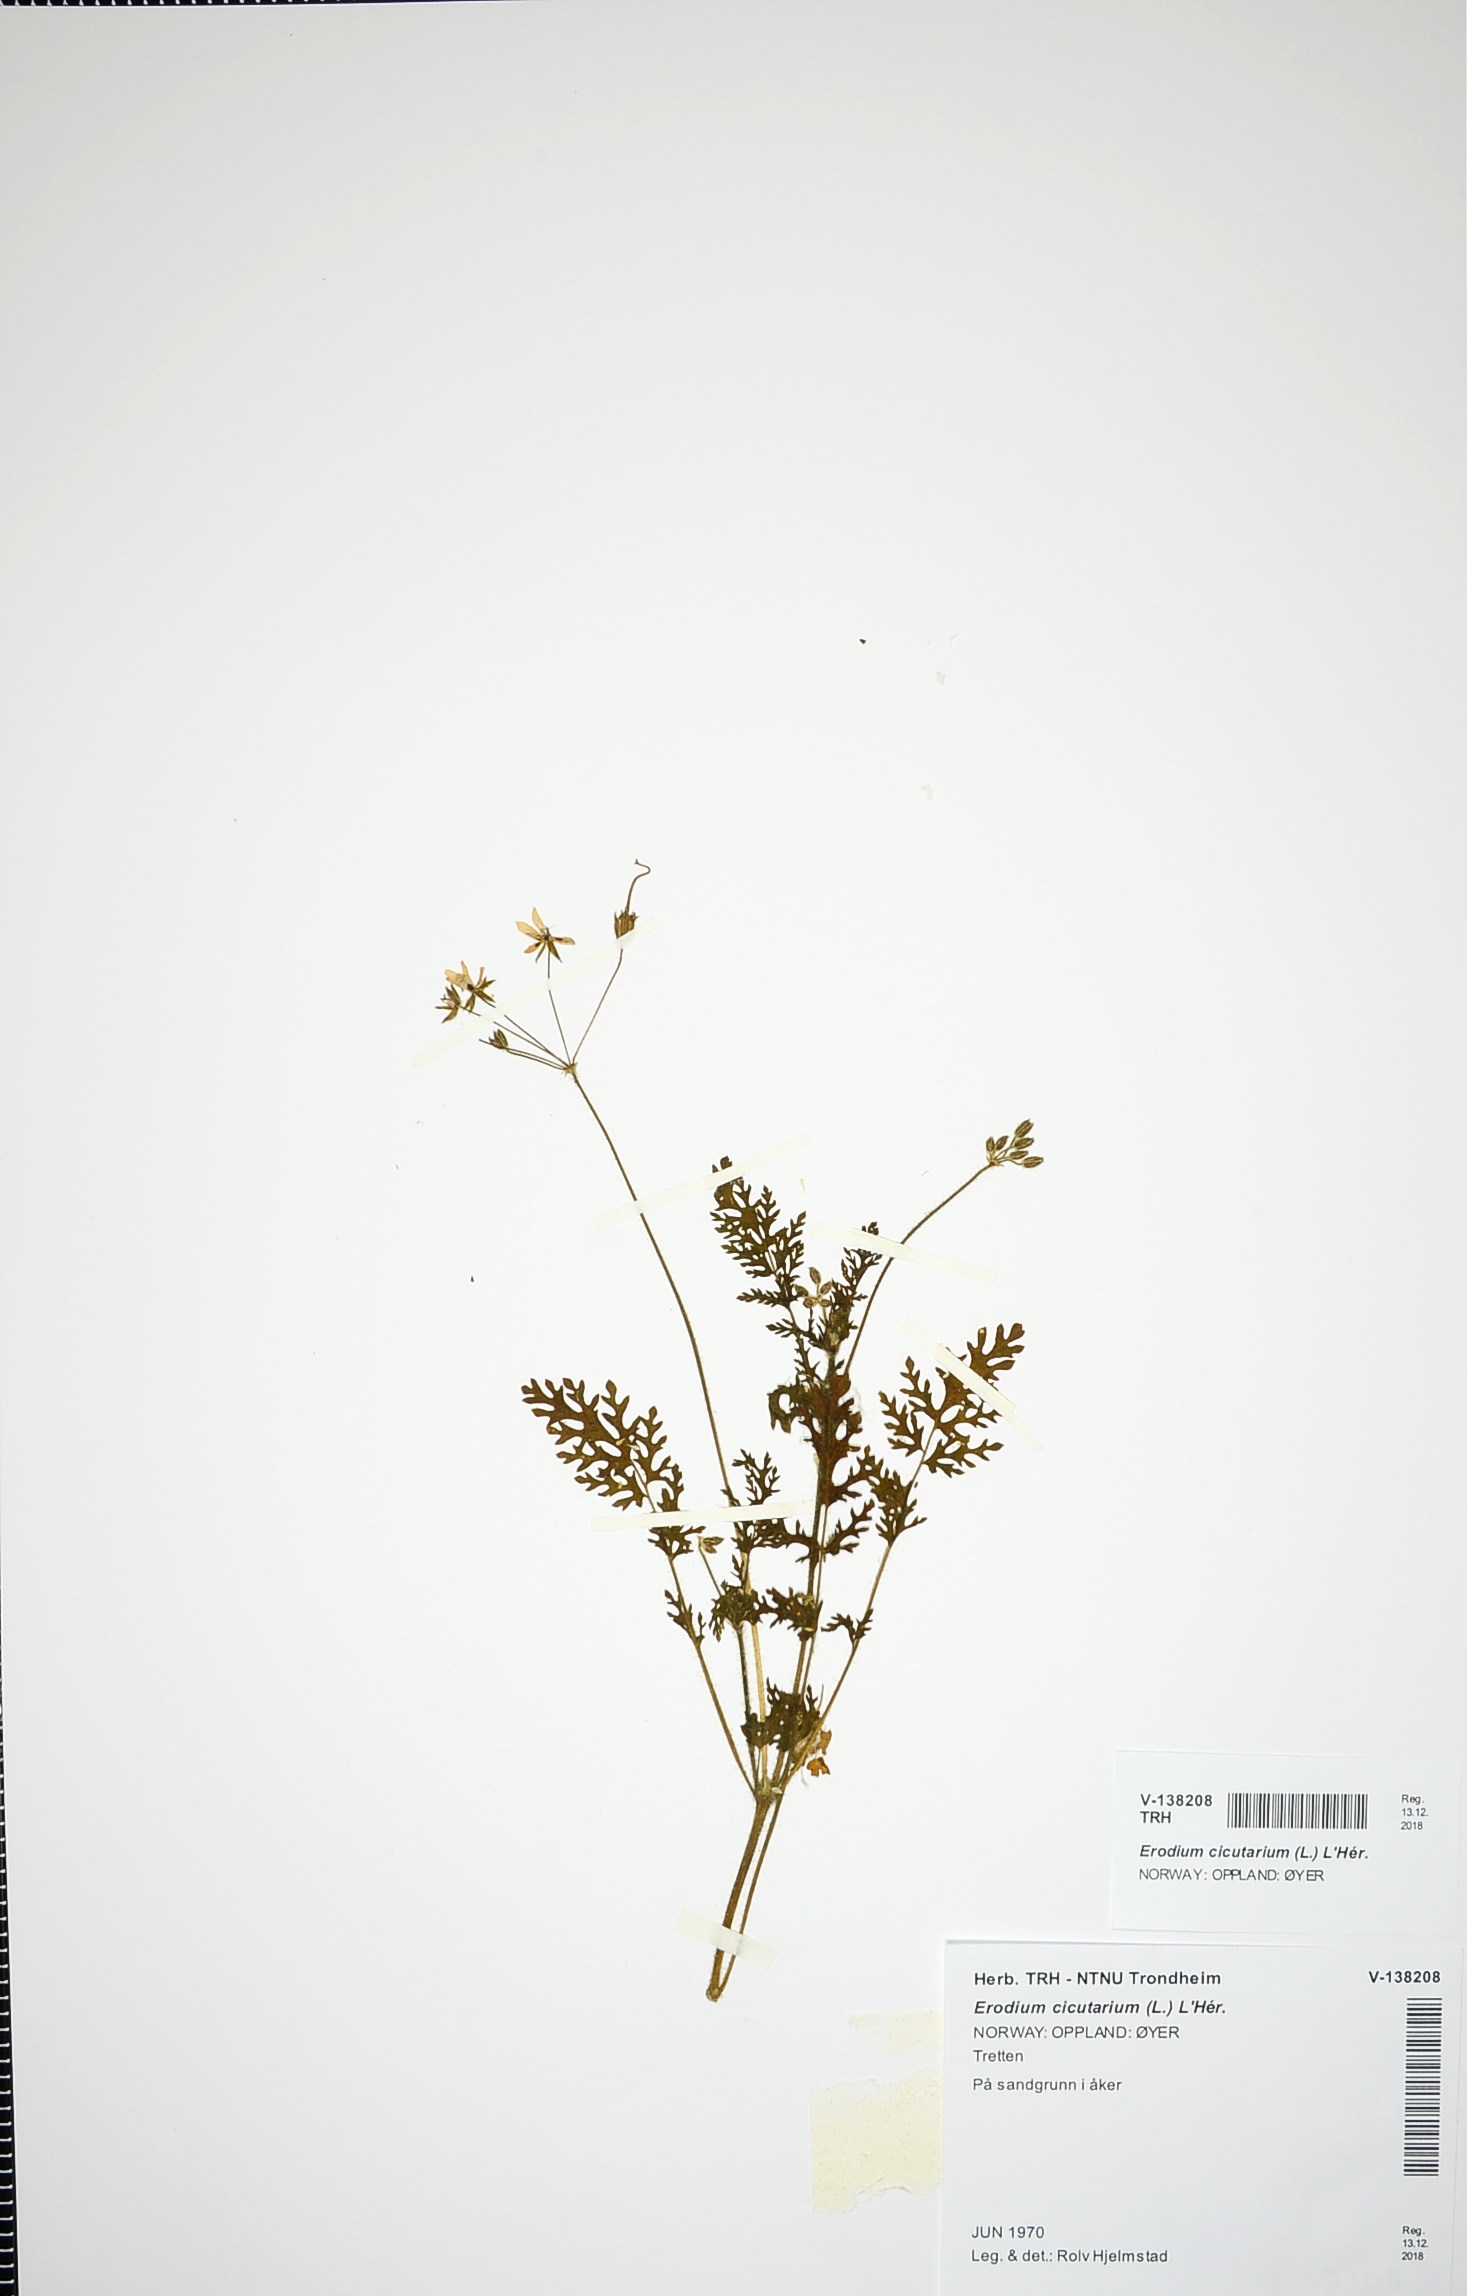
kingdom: Plantae
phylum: Tracheophyta
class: Magnoliopsida
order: Geraniales
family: Geraniaceae
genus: Erodium
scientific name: Erodium cicutarium
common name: Common stork's-bill
